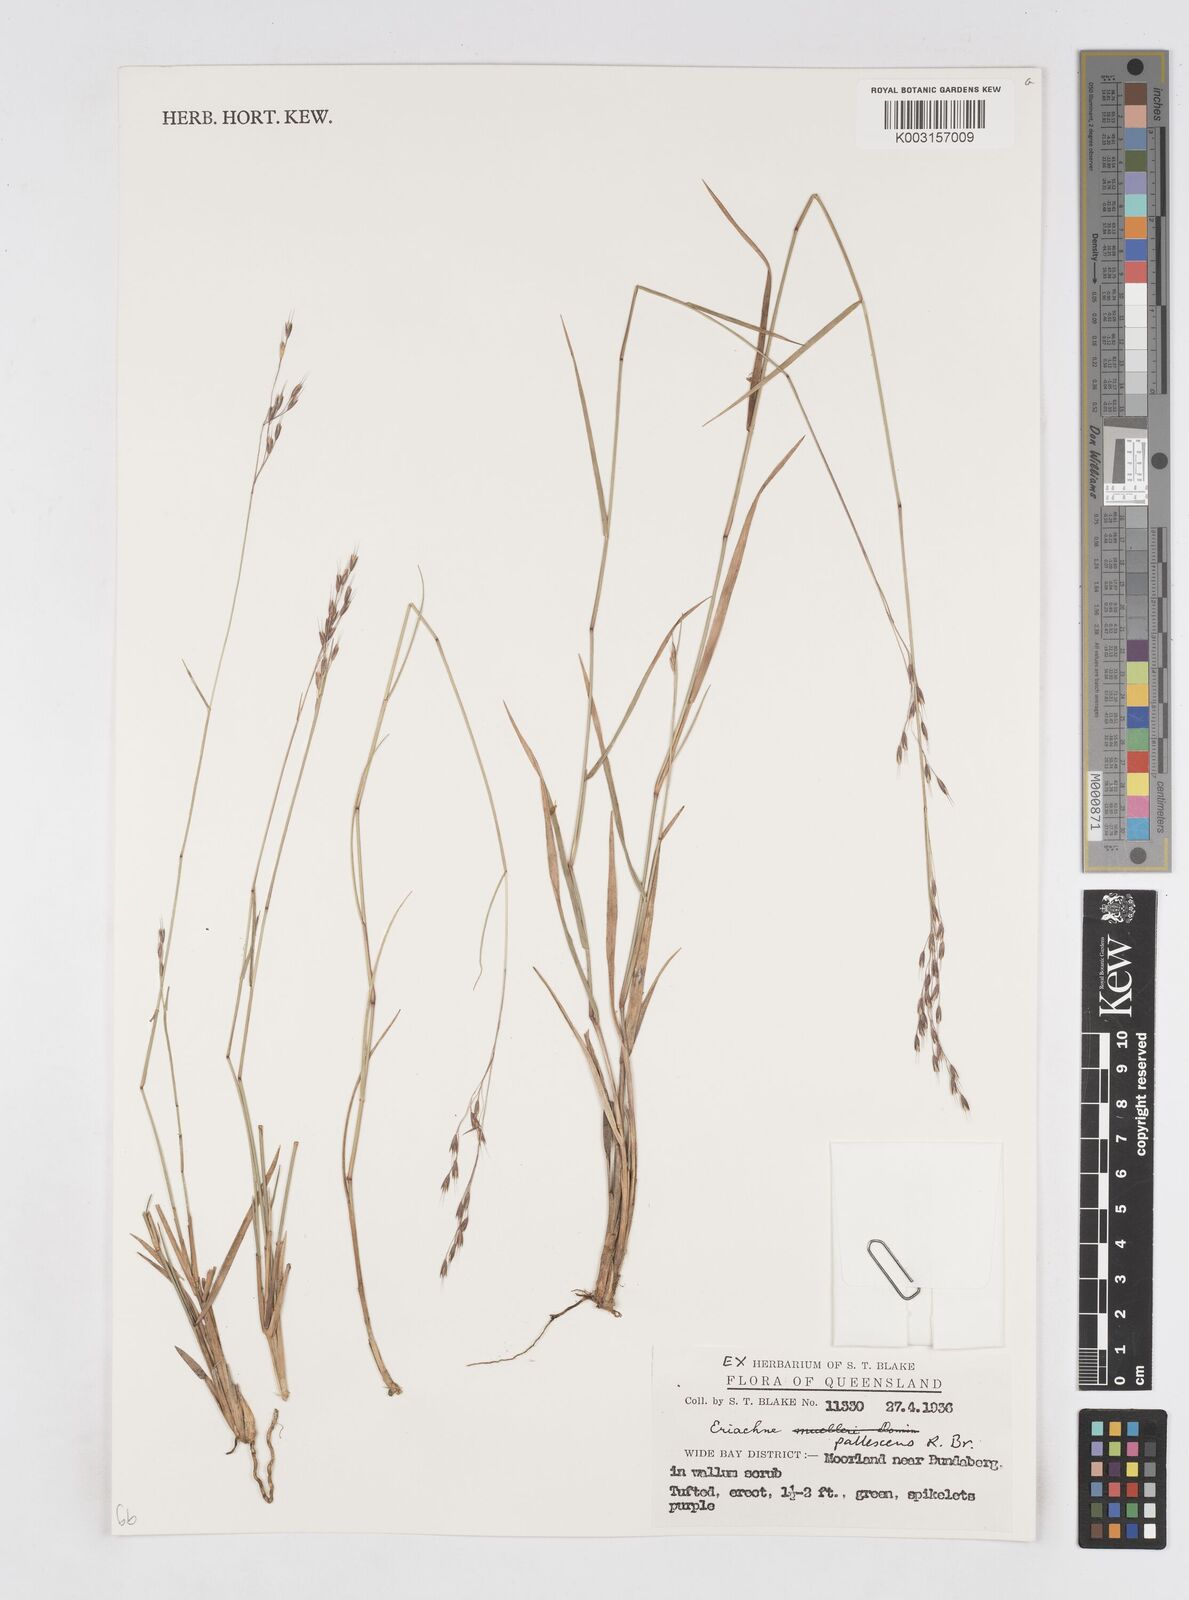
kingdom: Plantae
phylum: Tracheophyta
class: Liliopsida
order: Poales
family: Poaceae
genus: Eriachne
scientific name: Eriachne pallescens
